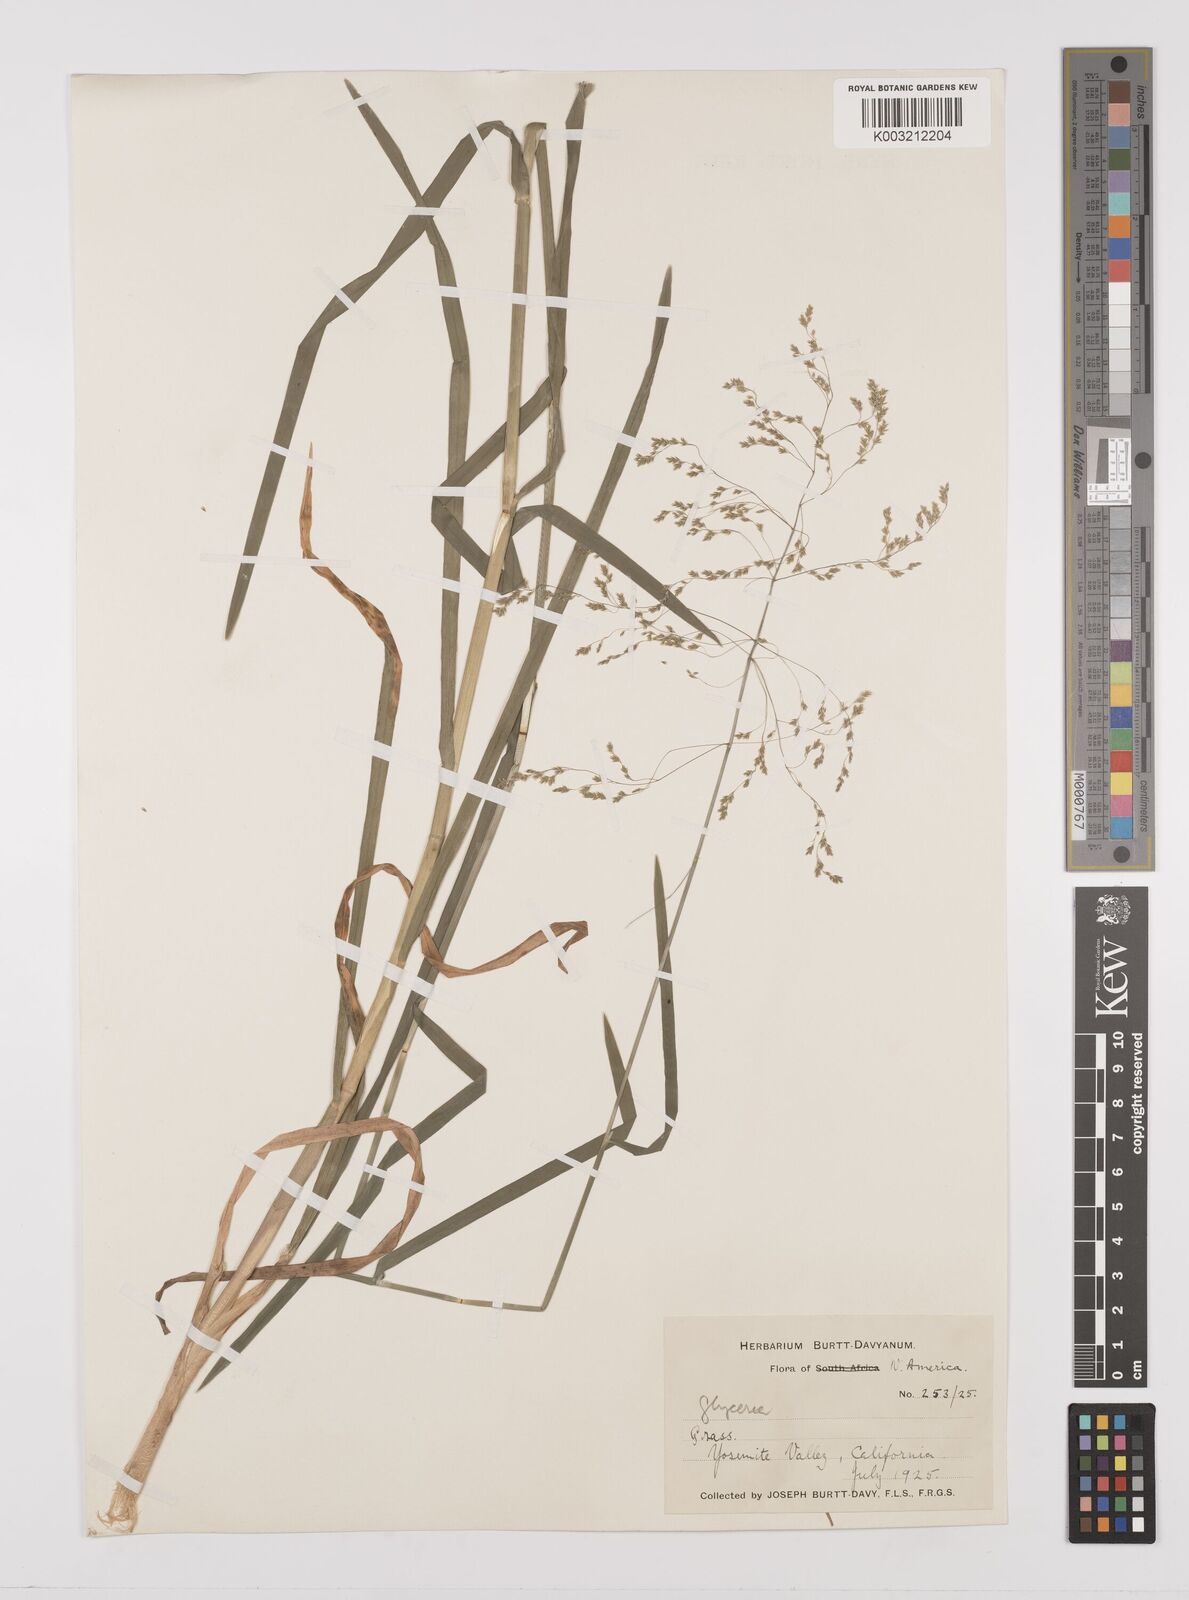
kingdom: Plantae
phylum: Tracheophyta
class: Liliopsida
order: Poales
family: Poaceae
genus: Glyceria
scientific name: Glyceria
